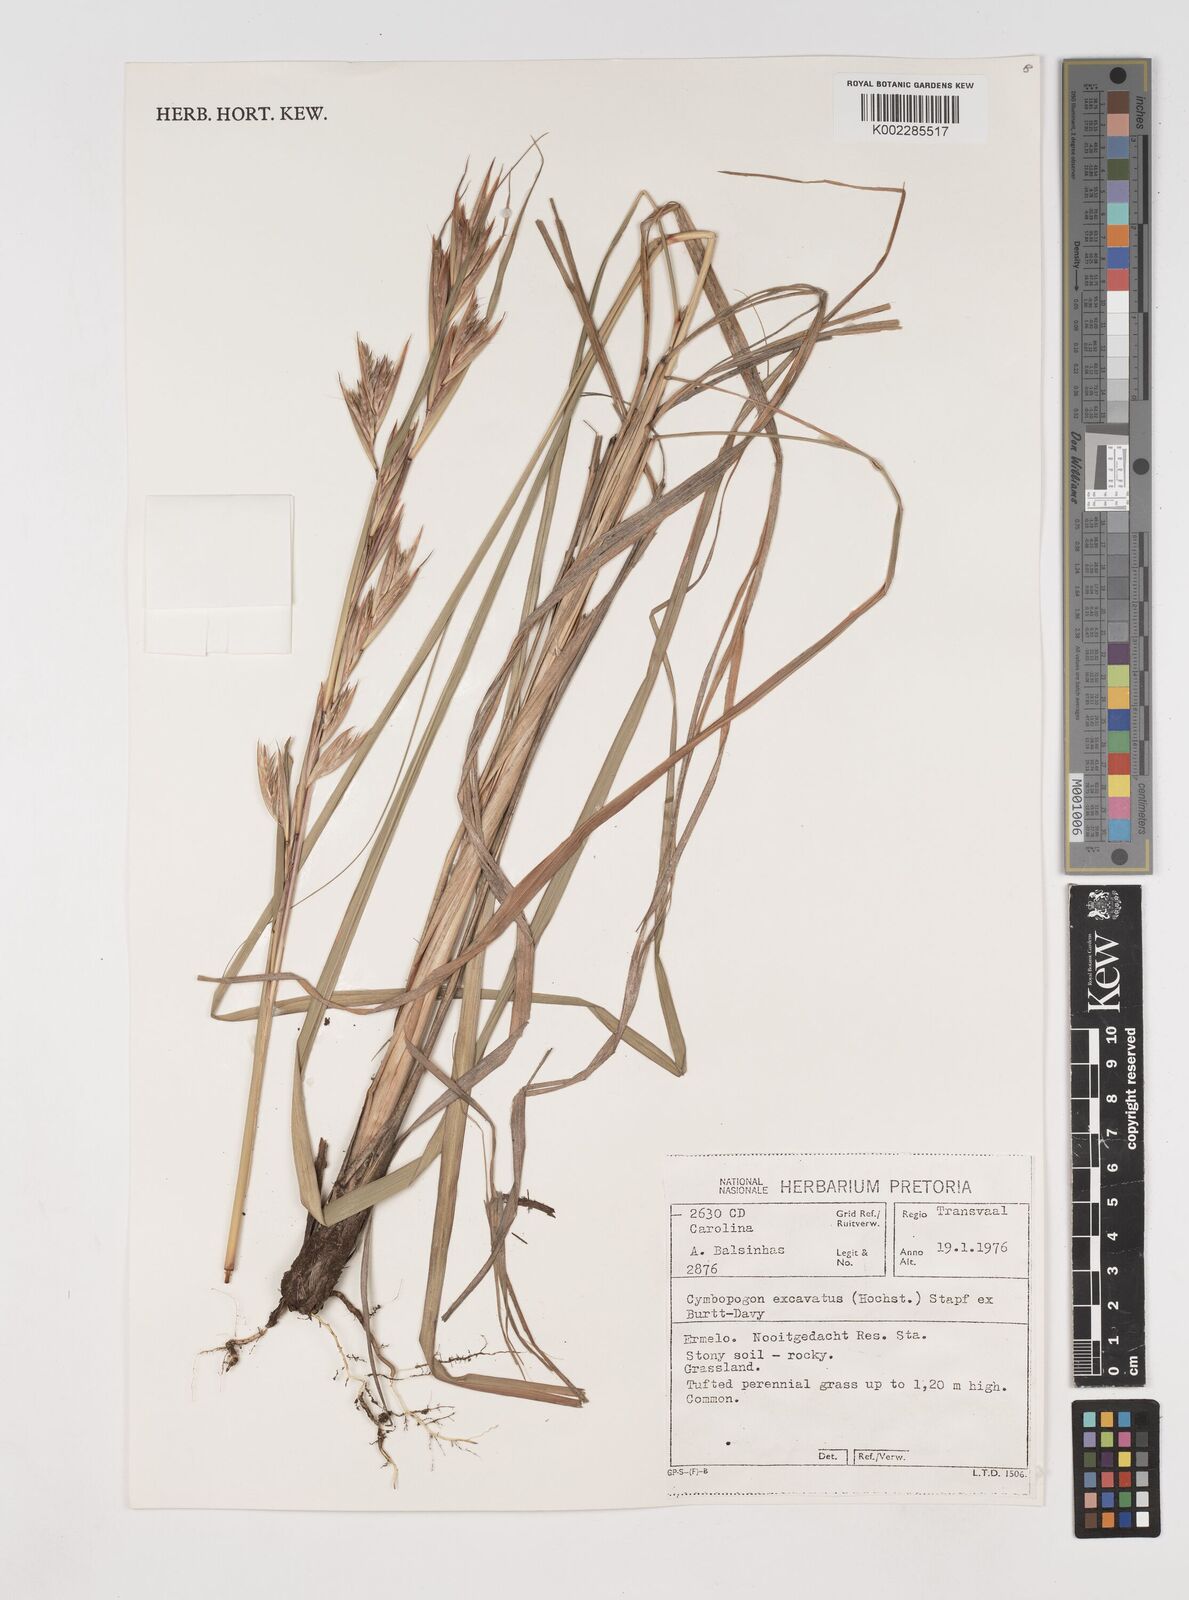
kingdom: Plantae
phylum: Tracheophyta
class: Liliopsida
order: Poales
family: Poaceae
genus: Cymbopogon
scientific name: Cymbopogon caesius
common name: Kachi grass
